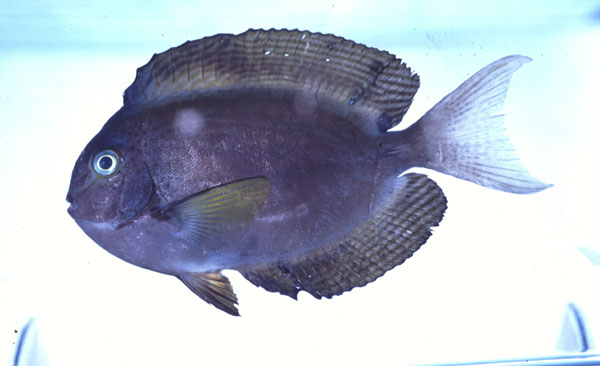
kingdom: Animalia
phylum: Chordata
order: Perciformes
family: Acanthuridae
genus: Acanthurus
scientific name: Acanthurus thompsoni
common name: Chocolate surgeonfish
